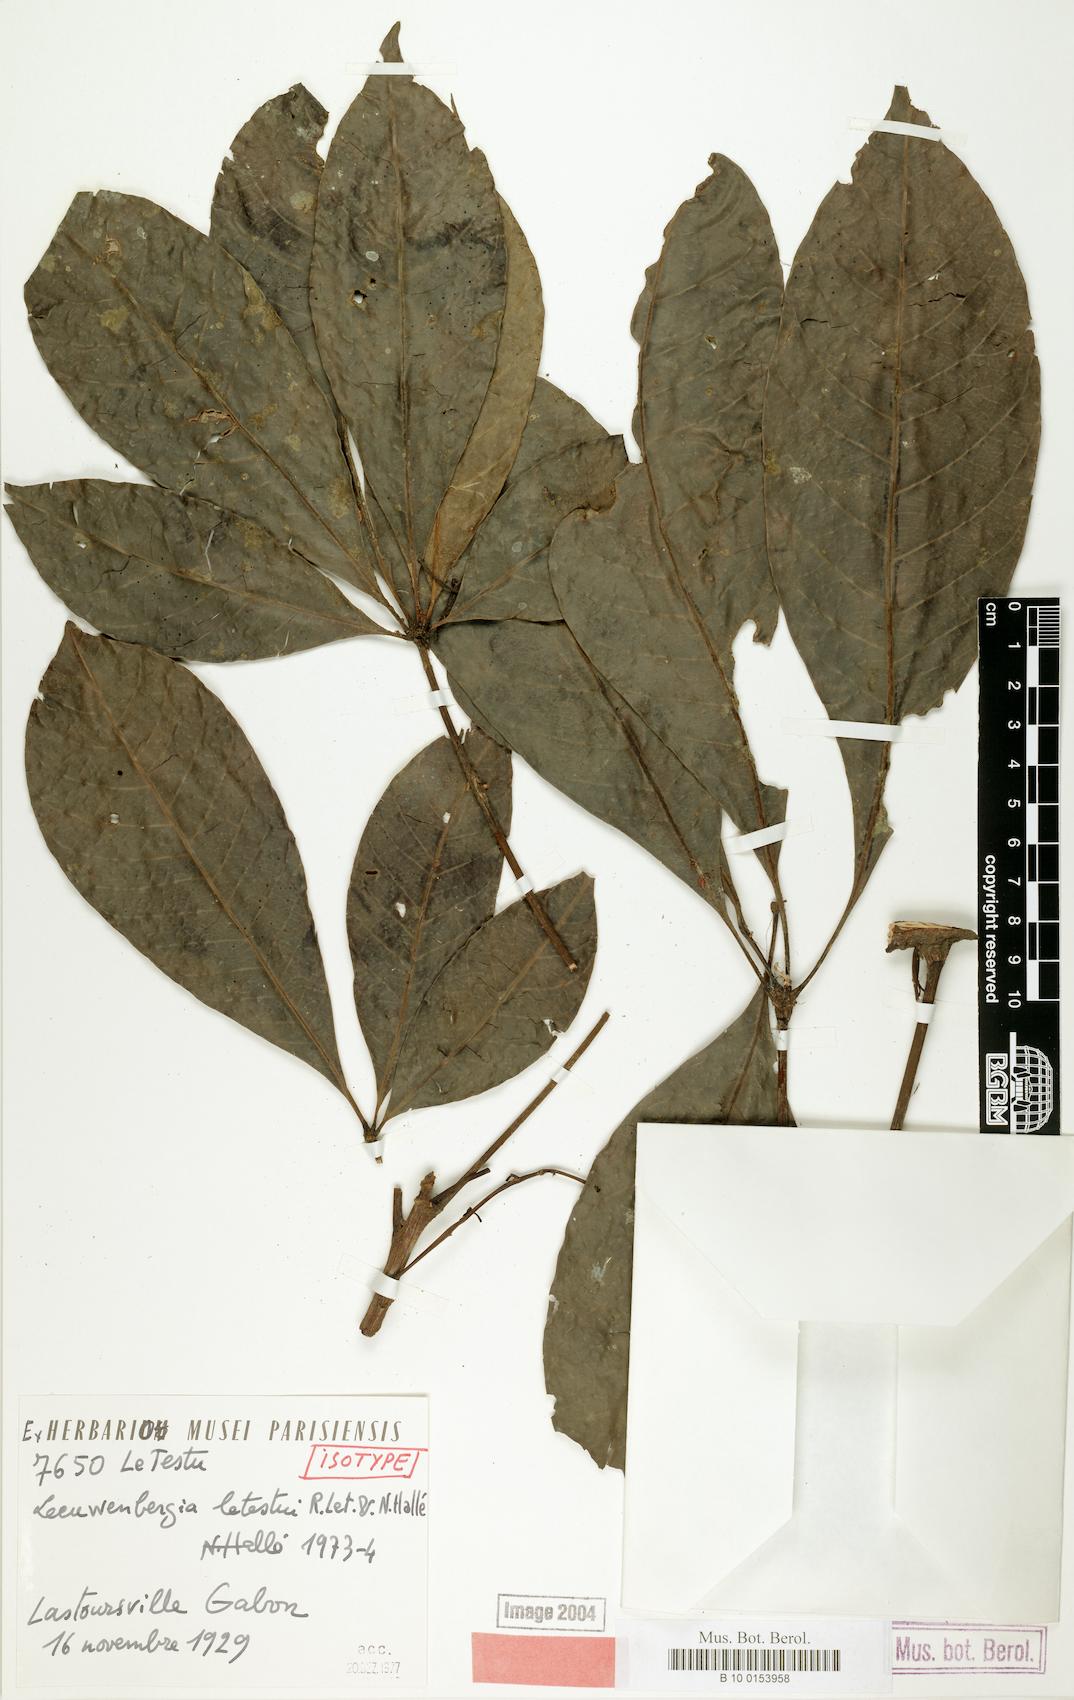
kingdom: Plantae
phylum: Tracheophyta
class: Magnoliopsida
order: Malpighiales
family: Euphorbiaceae
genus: Leeuwenbergia
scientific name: Leeuwenbergia letestui
